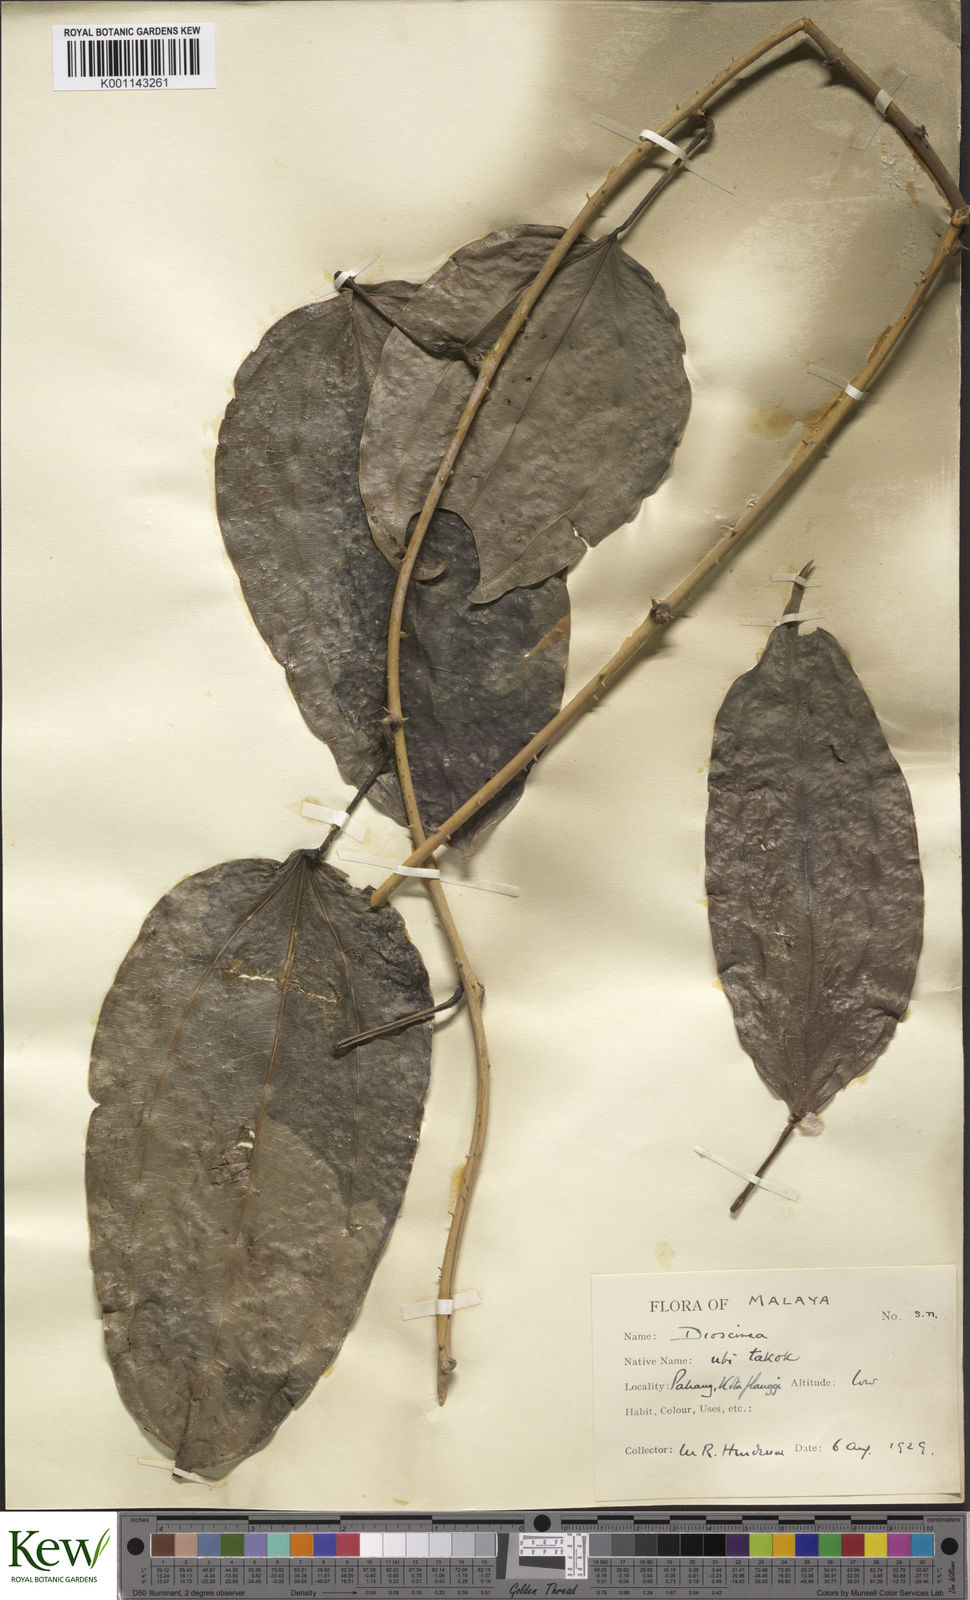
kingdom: Plantae
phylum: Tracheophyta
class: Liliopsida
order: Dioscoreales
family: Dioscoreaceae
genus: Dioscorea
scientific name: Dioscorea lamprocaula
